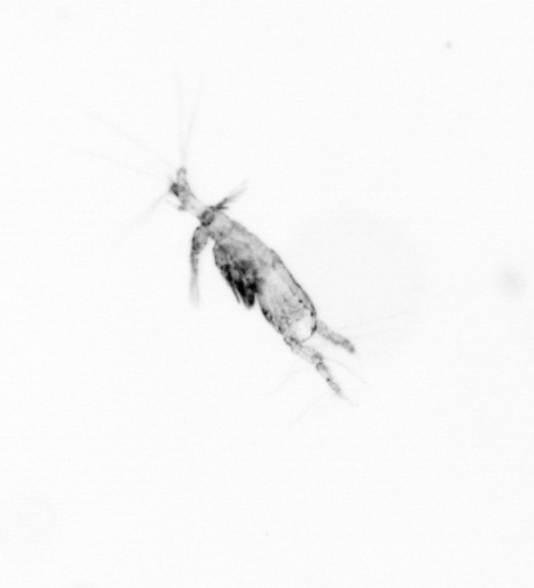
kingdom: Animalia
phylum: Arthropoda
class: Copepoda
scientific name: Copepoda
